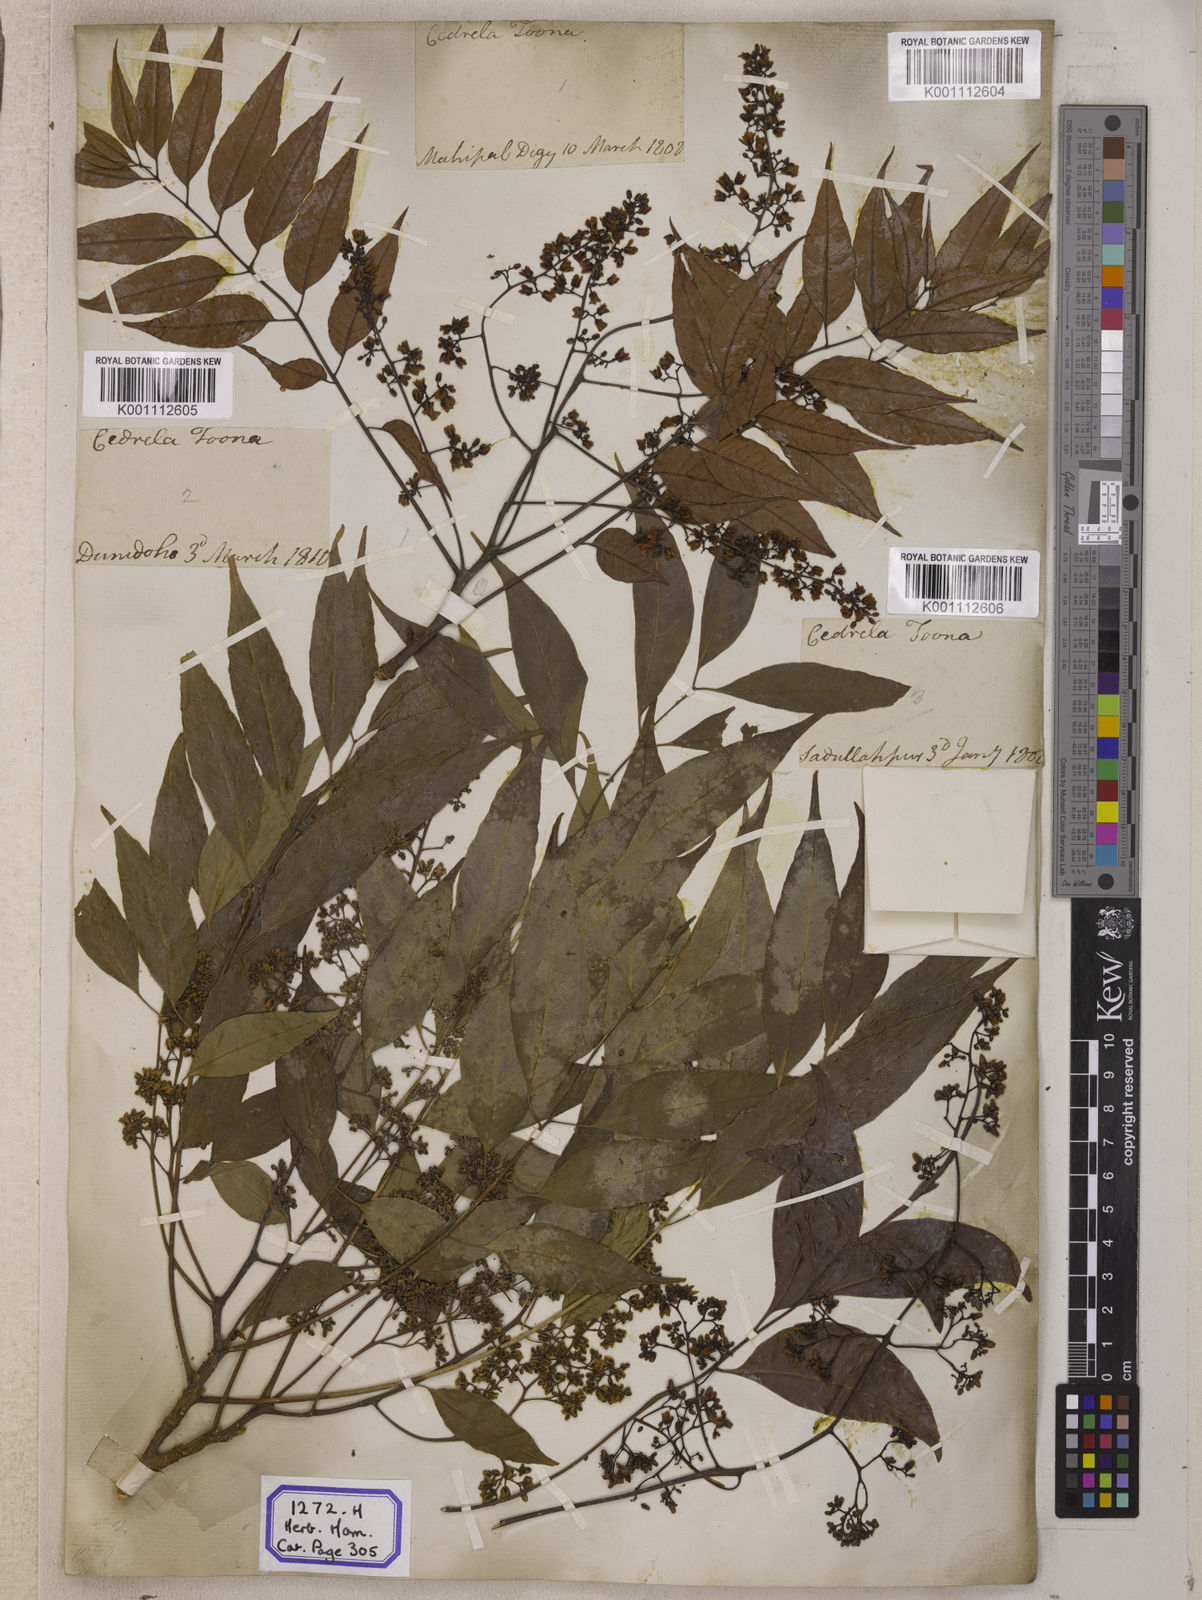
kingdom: Plantae
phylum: Tracheophyta
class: Magnoliopsida
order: Sapindales
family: Meliaceae
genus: Cedrela
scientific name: Cedrela
